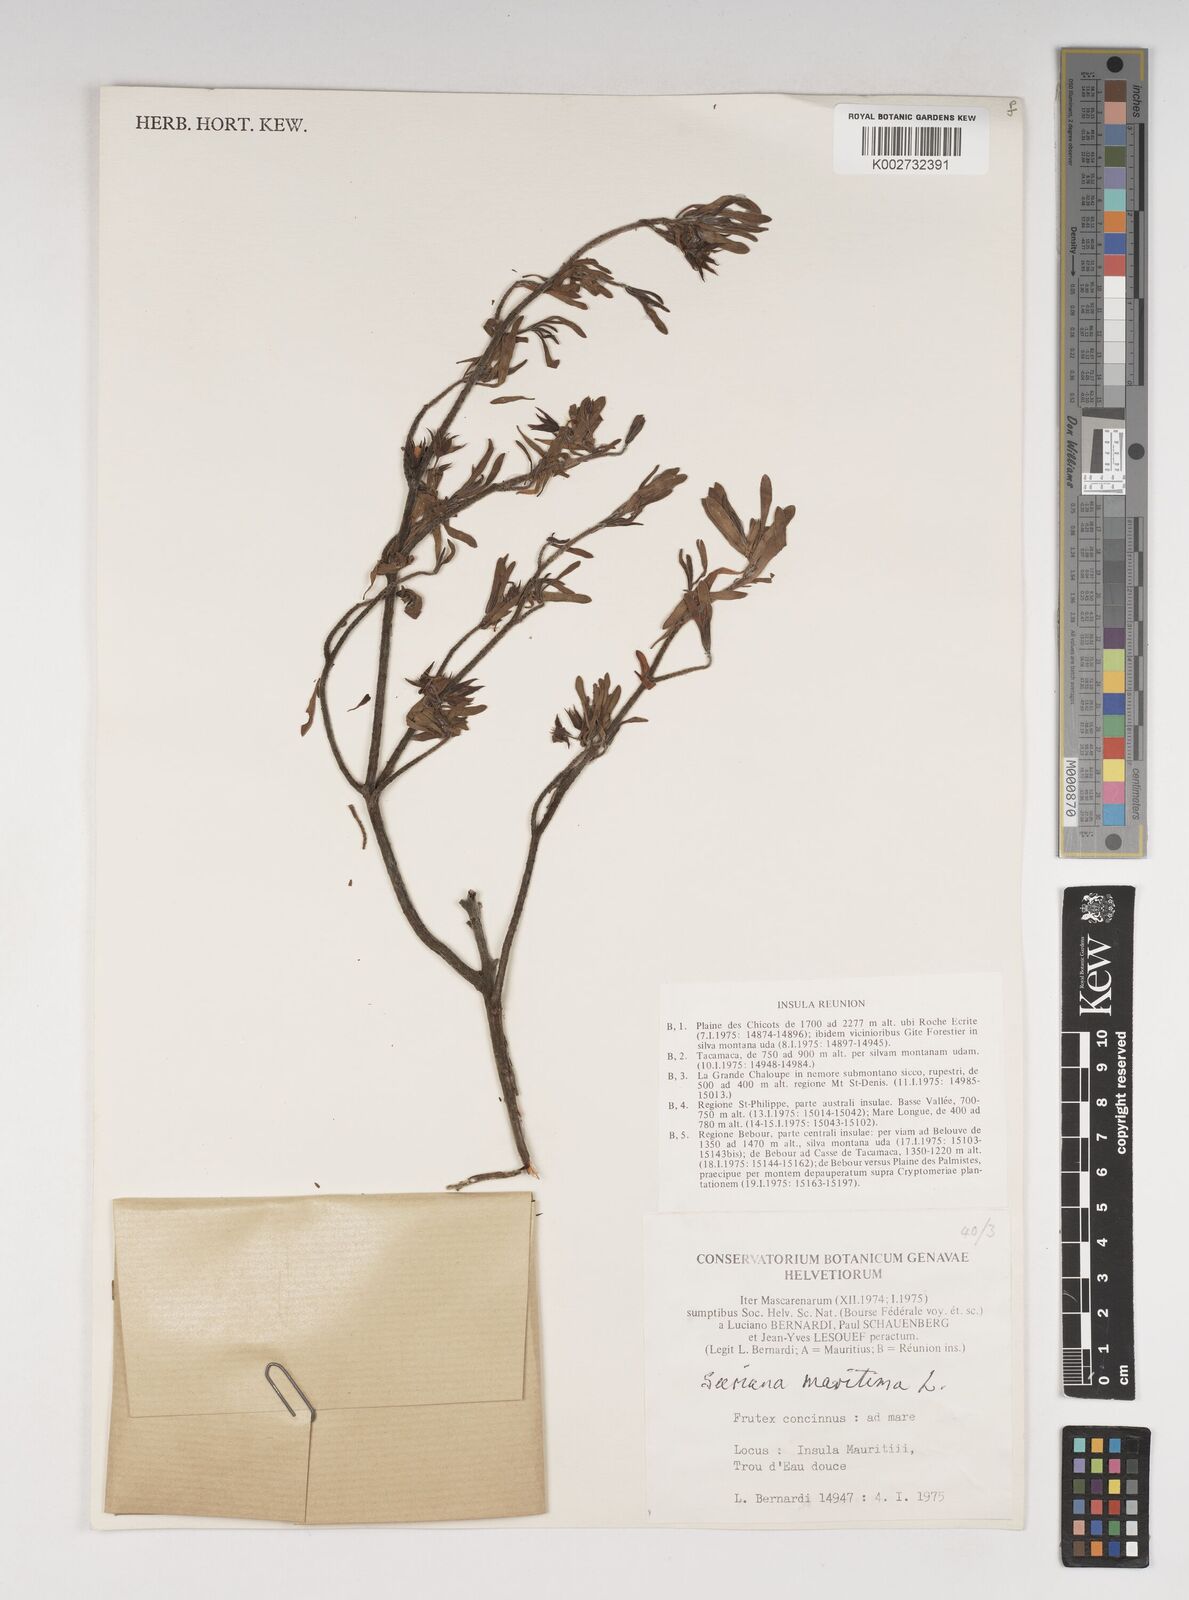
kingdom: Plantae
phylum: Tracheophyta
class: Magnoliopsida
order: Fabales
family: Surianaceae
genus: Suriana
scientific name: Suriana maritima
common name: Bay-cedar
